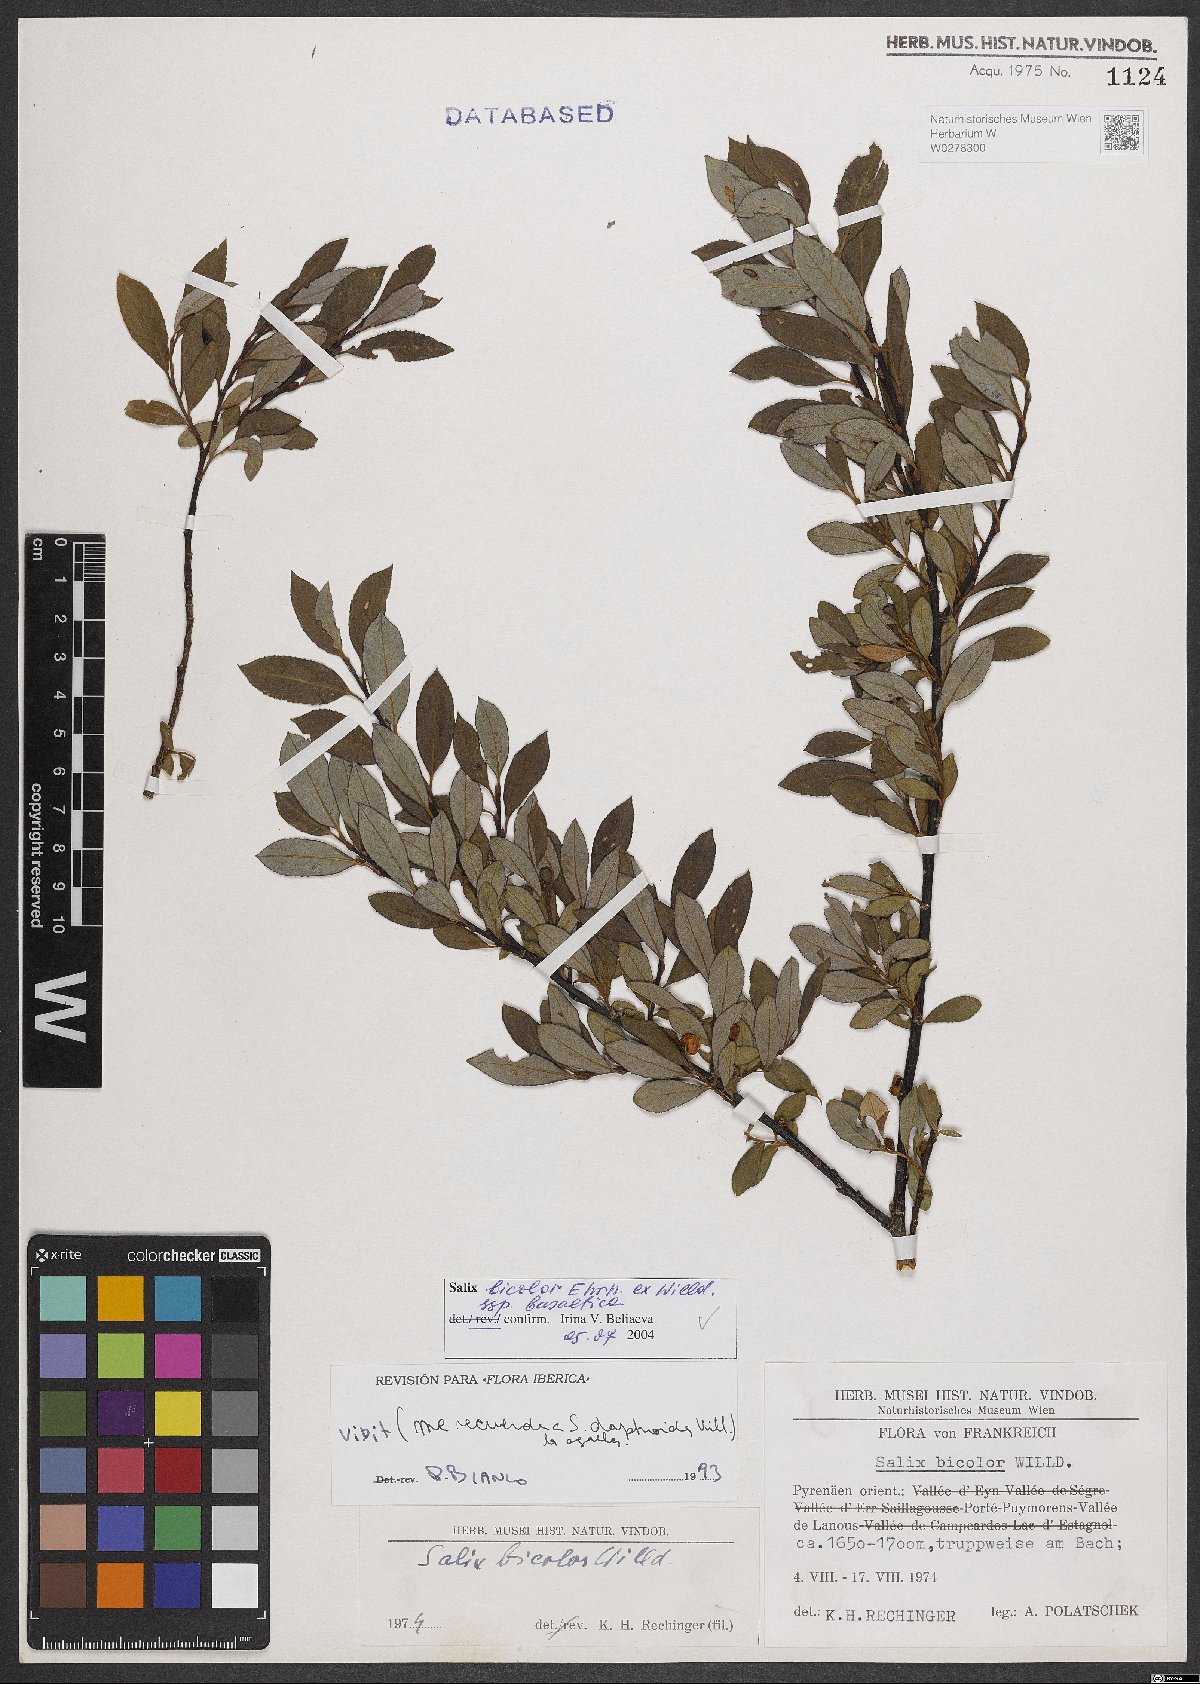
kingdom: Plantae
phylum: Tracheophyta
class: Magnoliopsida
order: Malpighiales
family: Salicaceae
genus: Salix
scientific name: Salix basaltica
